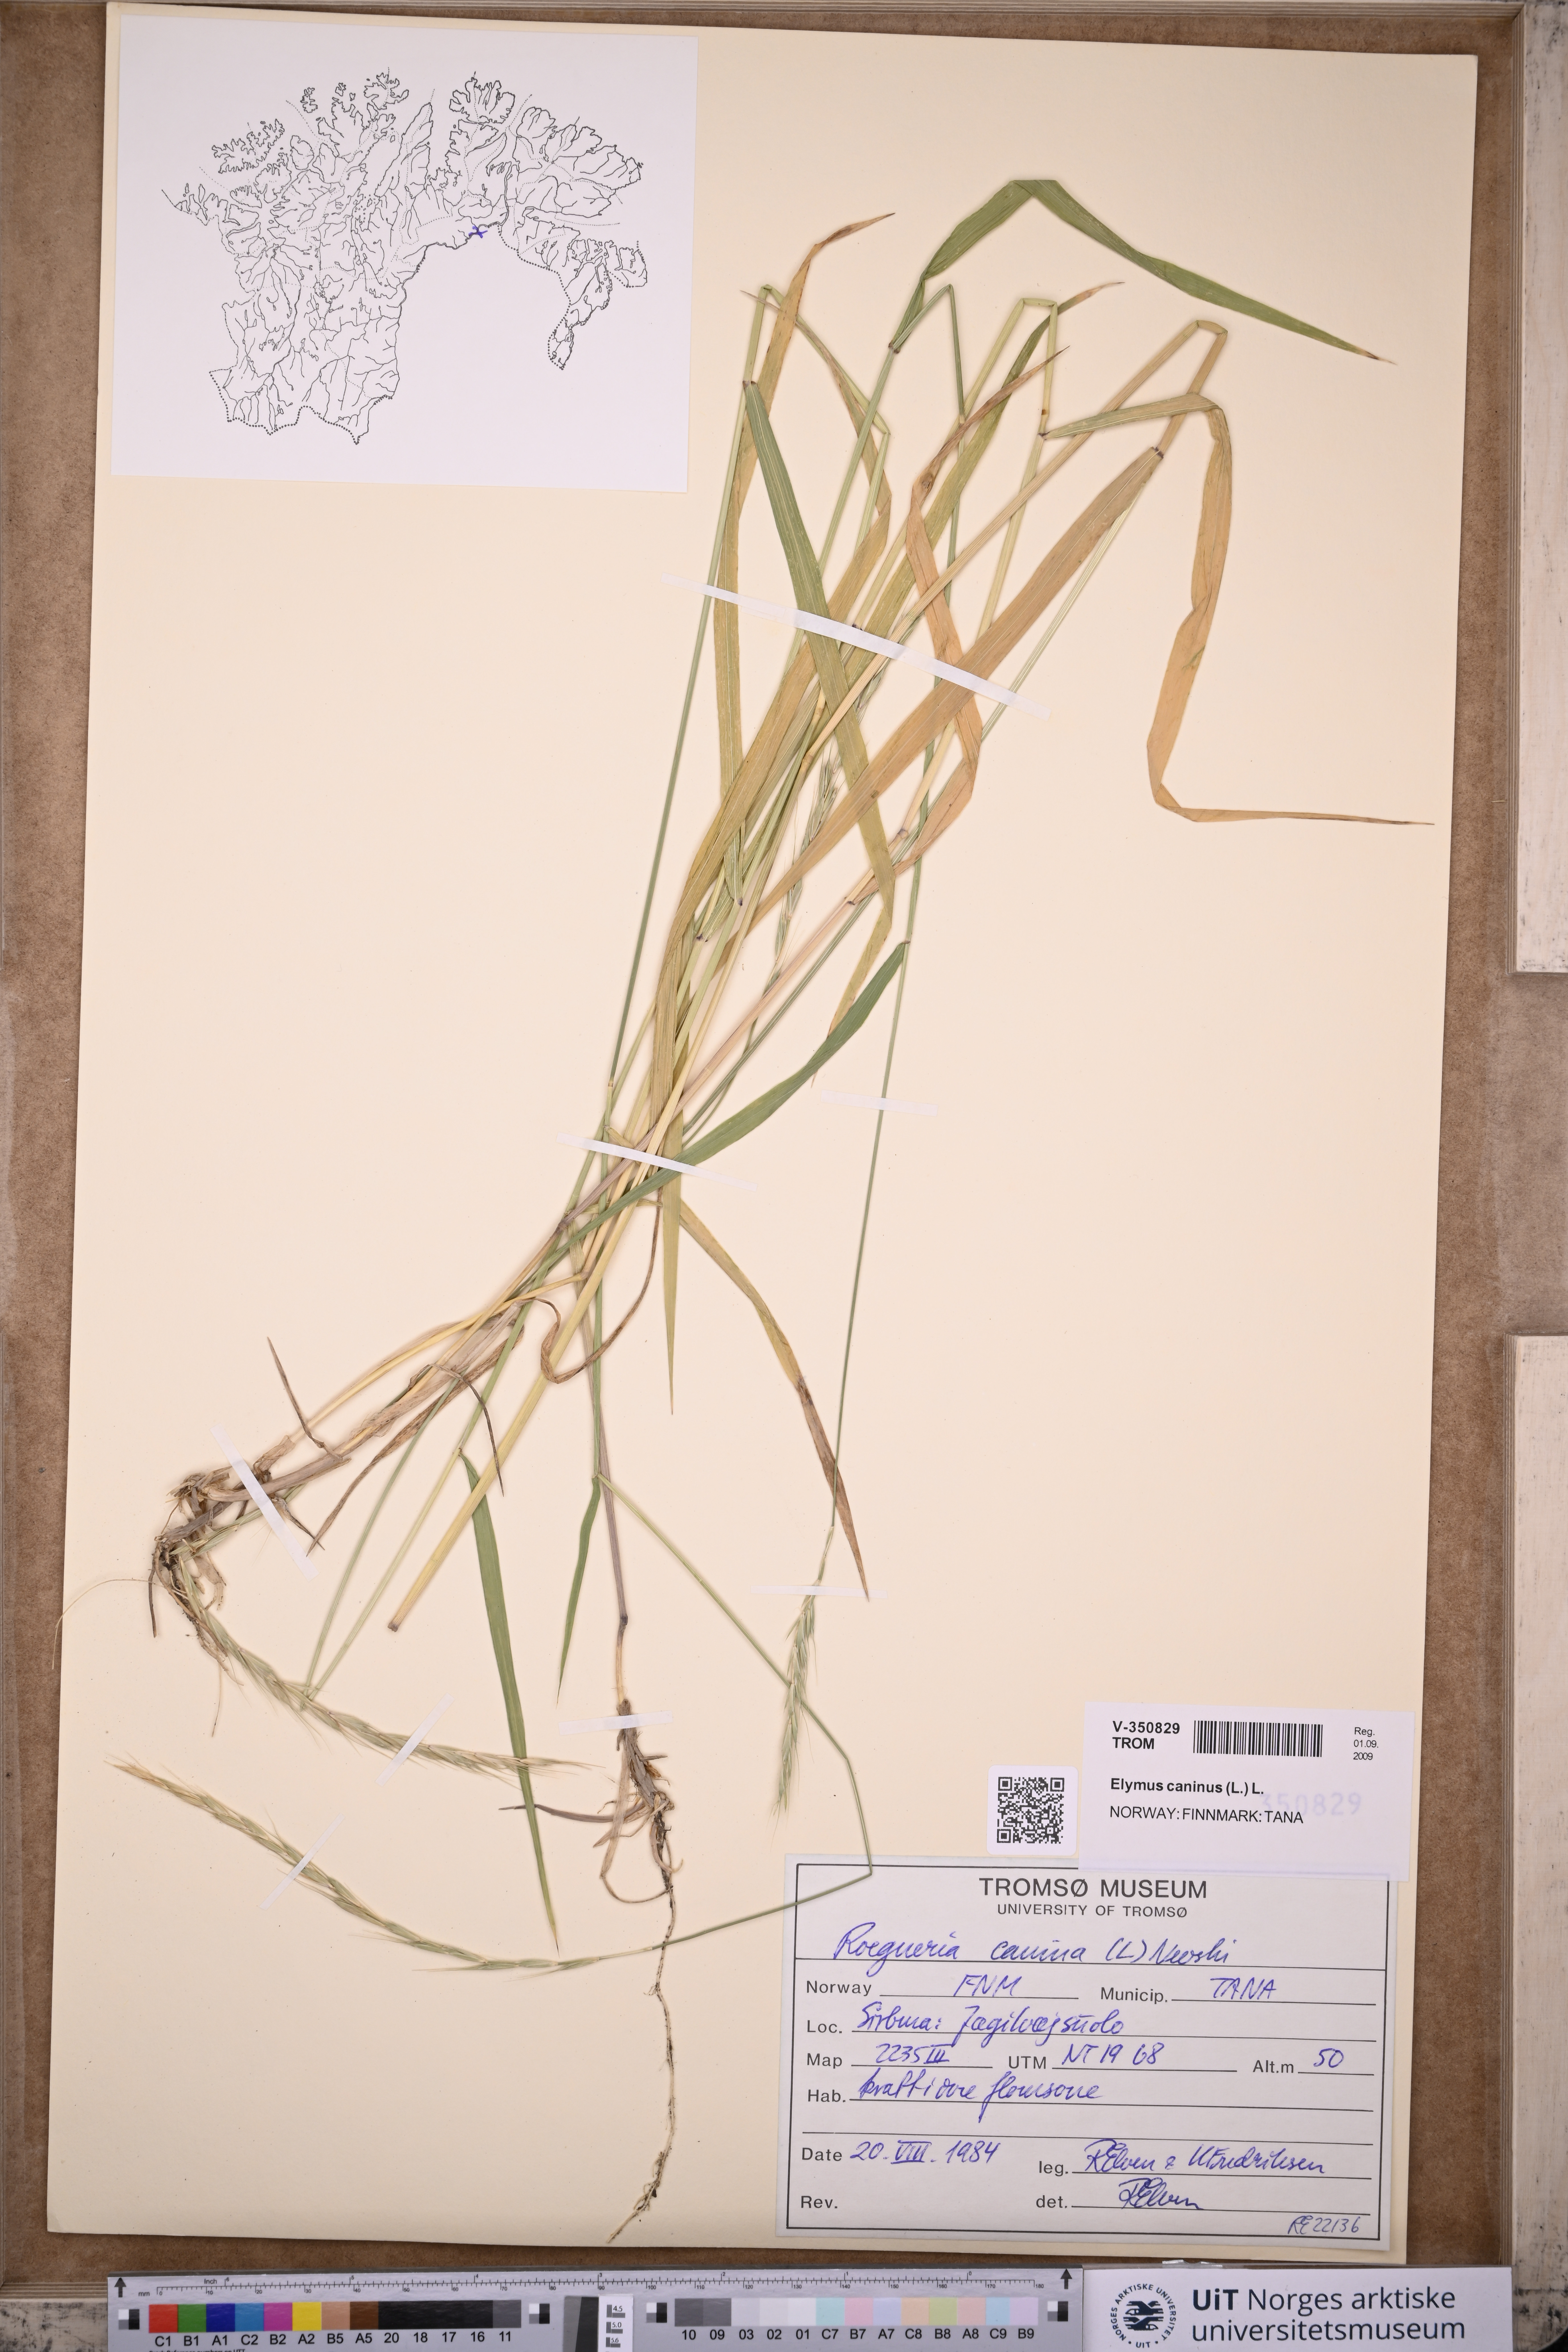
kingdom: Plantae
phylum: Tracheophyta
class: Liliopsida
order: Poales
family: Poaceae
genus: Elymus
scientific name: Elymus caninus
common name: Bearded couch
